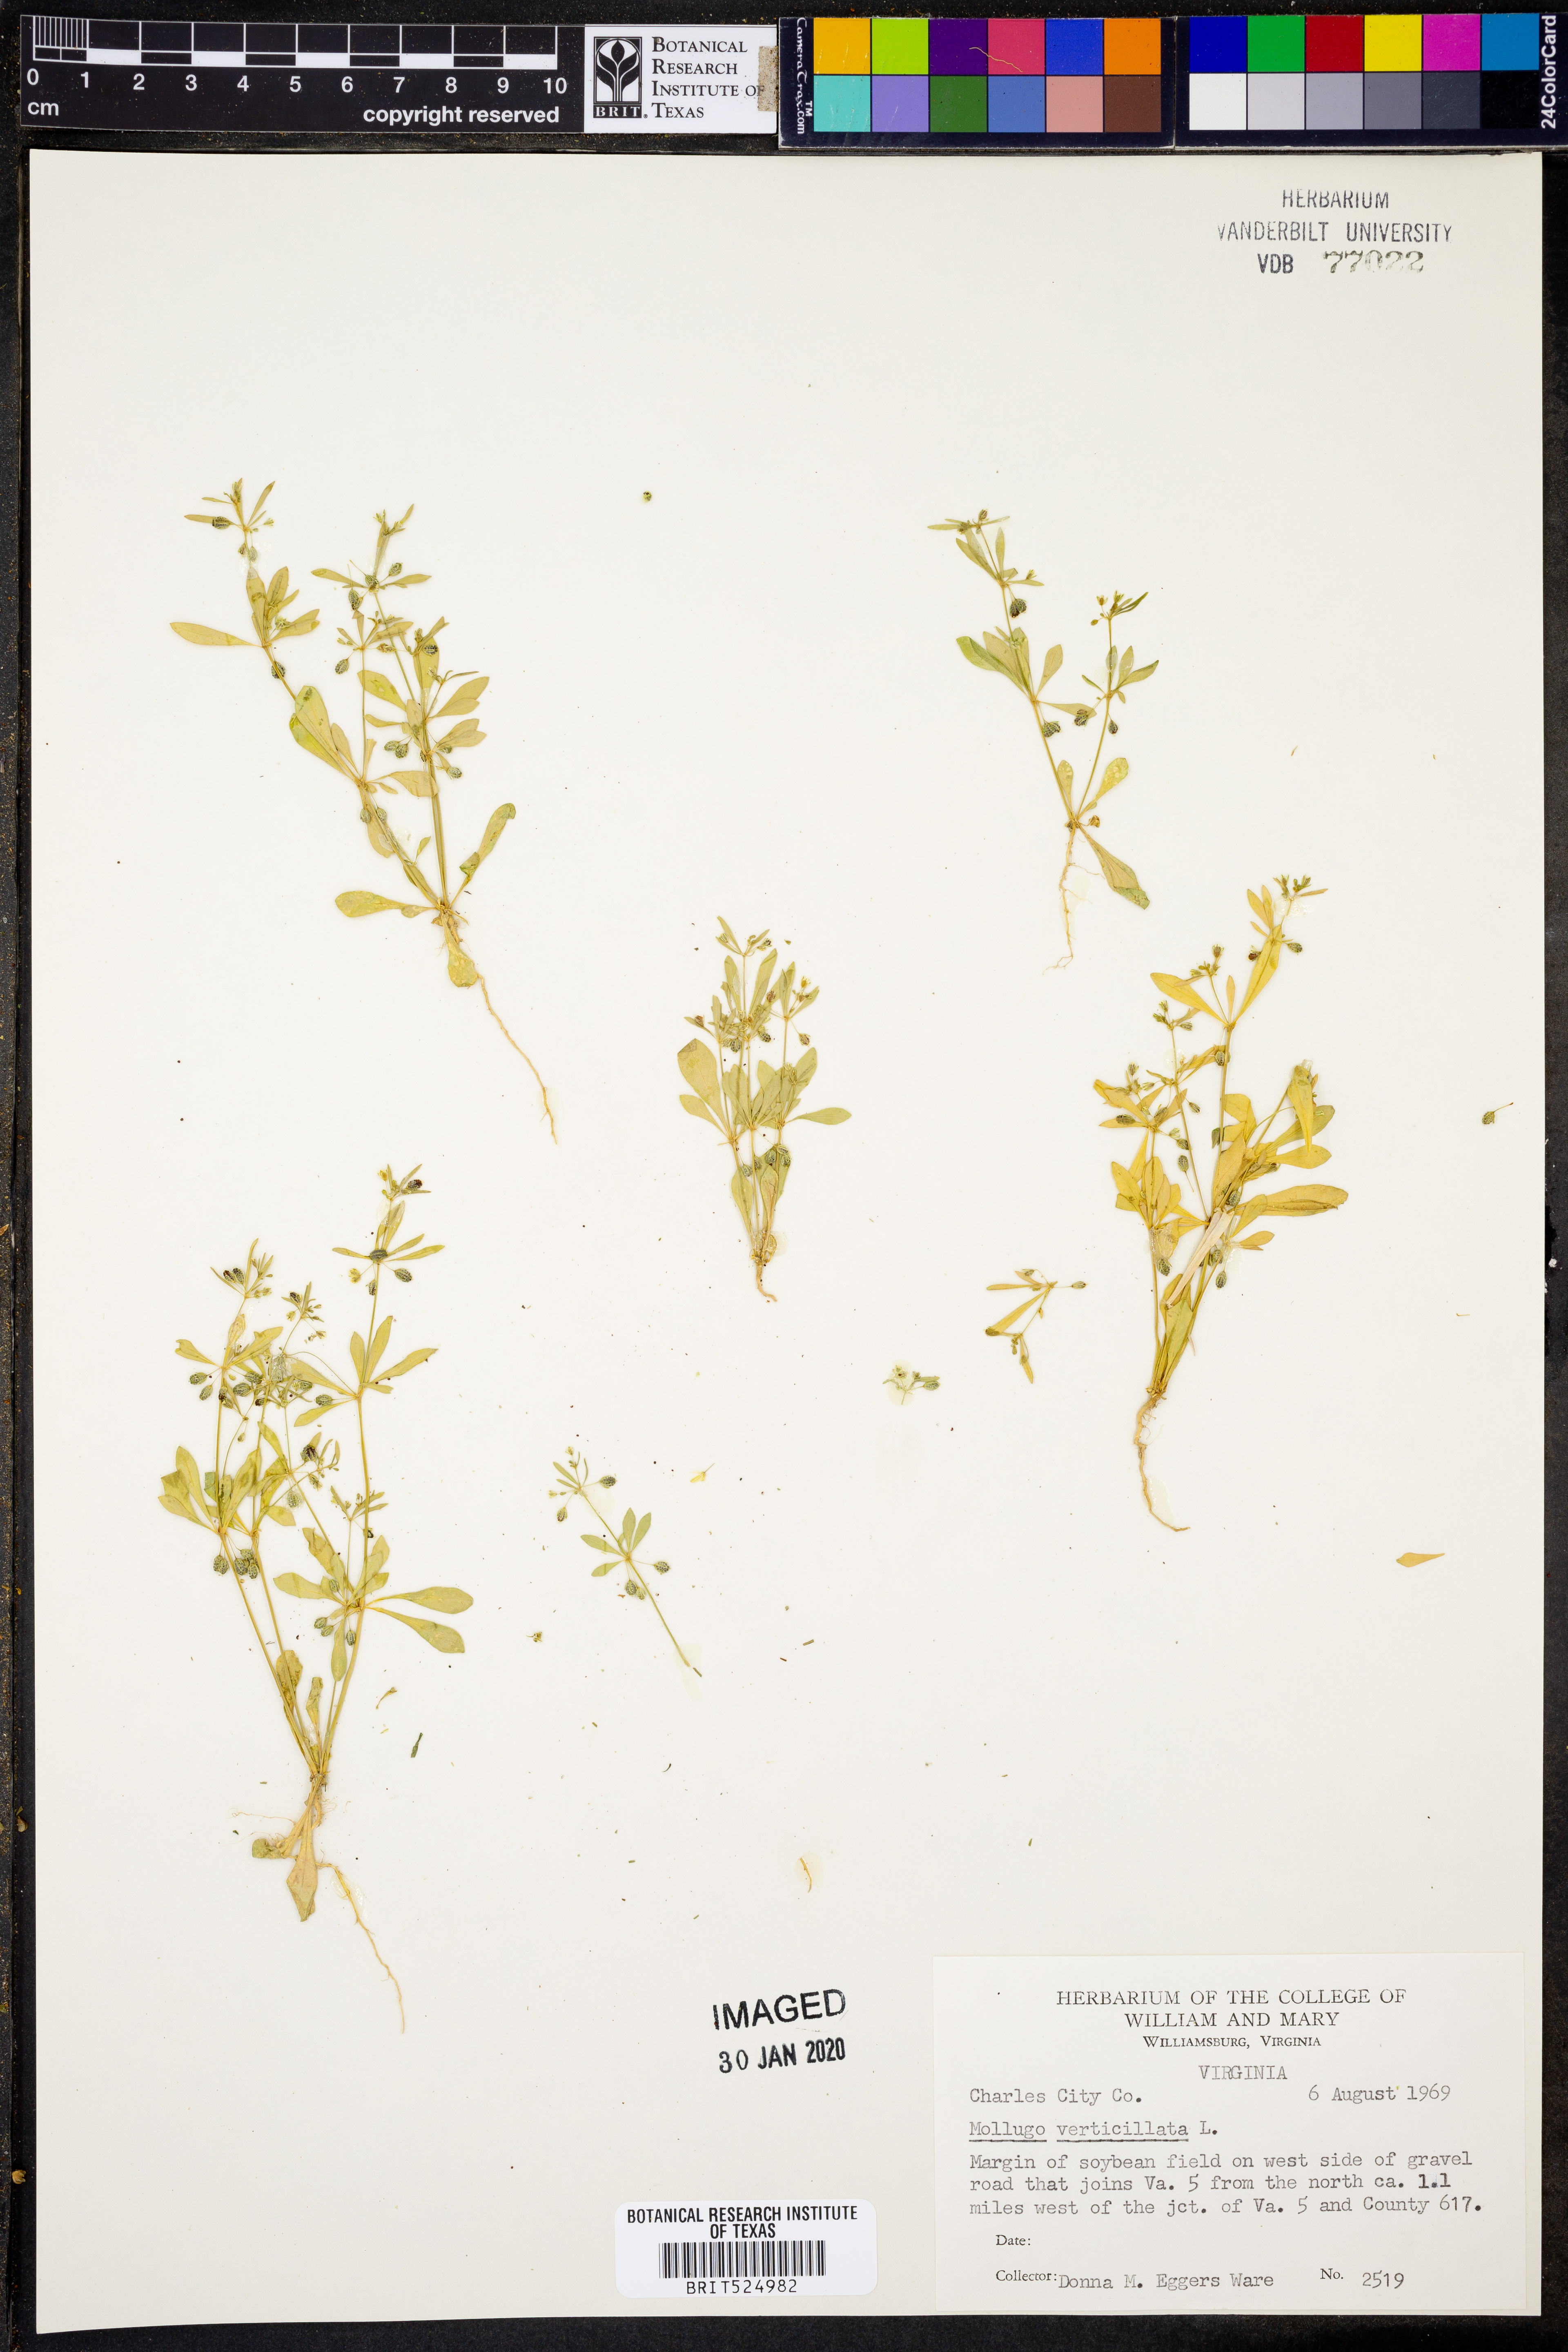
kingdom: Plantae
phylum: Tracheophyta
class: Magnoliopsida
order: Caryophyllales
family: Molluginaceae
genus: Mollugo
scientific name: Mollugo verticillata
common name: Green carpetweed
